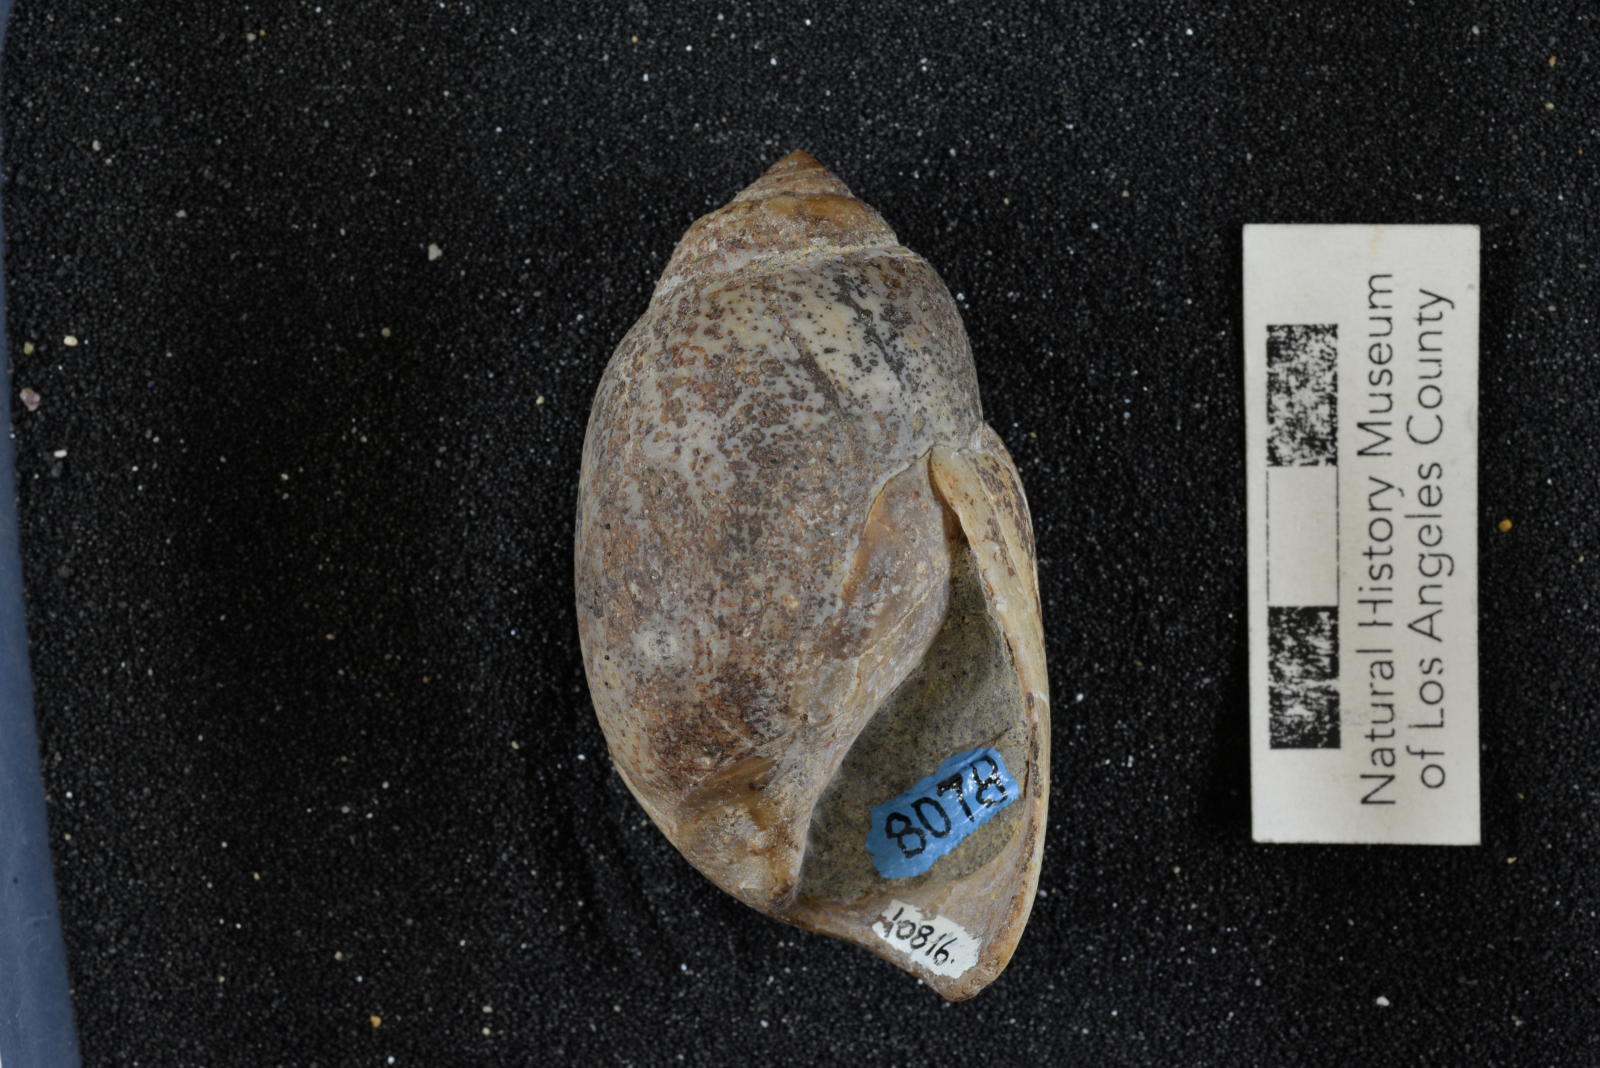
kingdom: Animalia
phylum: Mollusca
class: Gastropoda
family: Pseudomelaniidae
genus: Paosia
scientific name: Paosia Acteonina ursula
